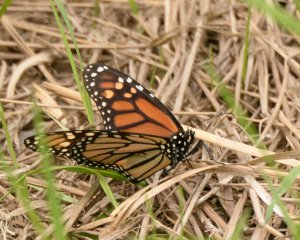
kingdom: Animalia
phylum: Arthropoda
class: Insecta
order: Lepidoptera
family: Nymphalidae
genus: Danaus
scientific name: Danaus plexippus
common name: Monarch
